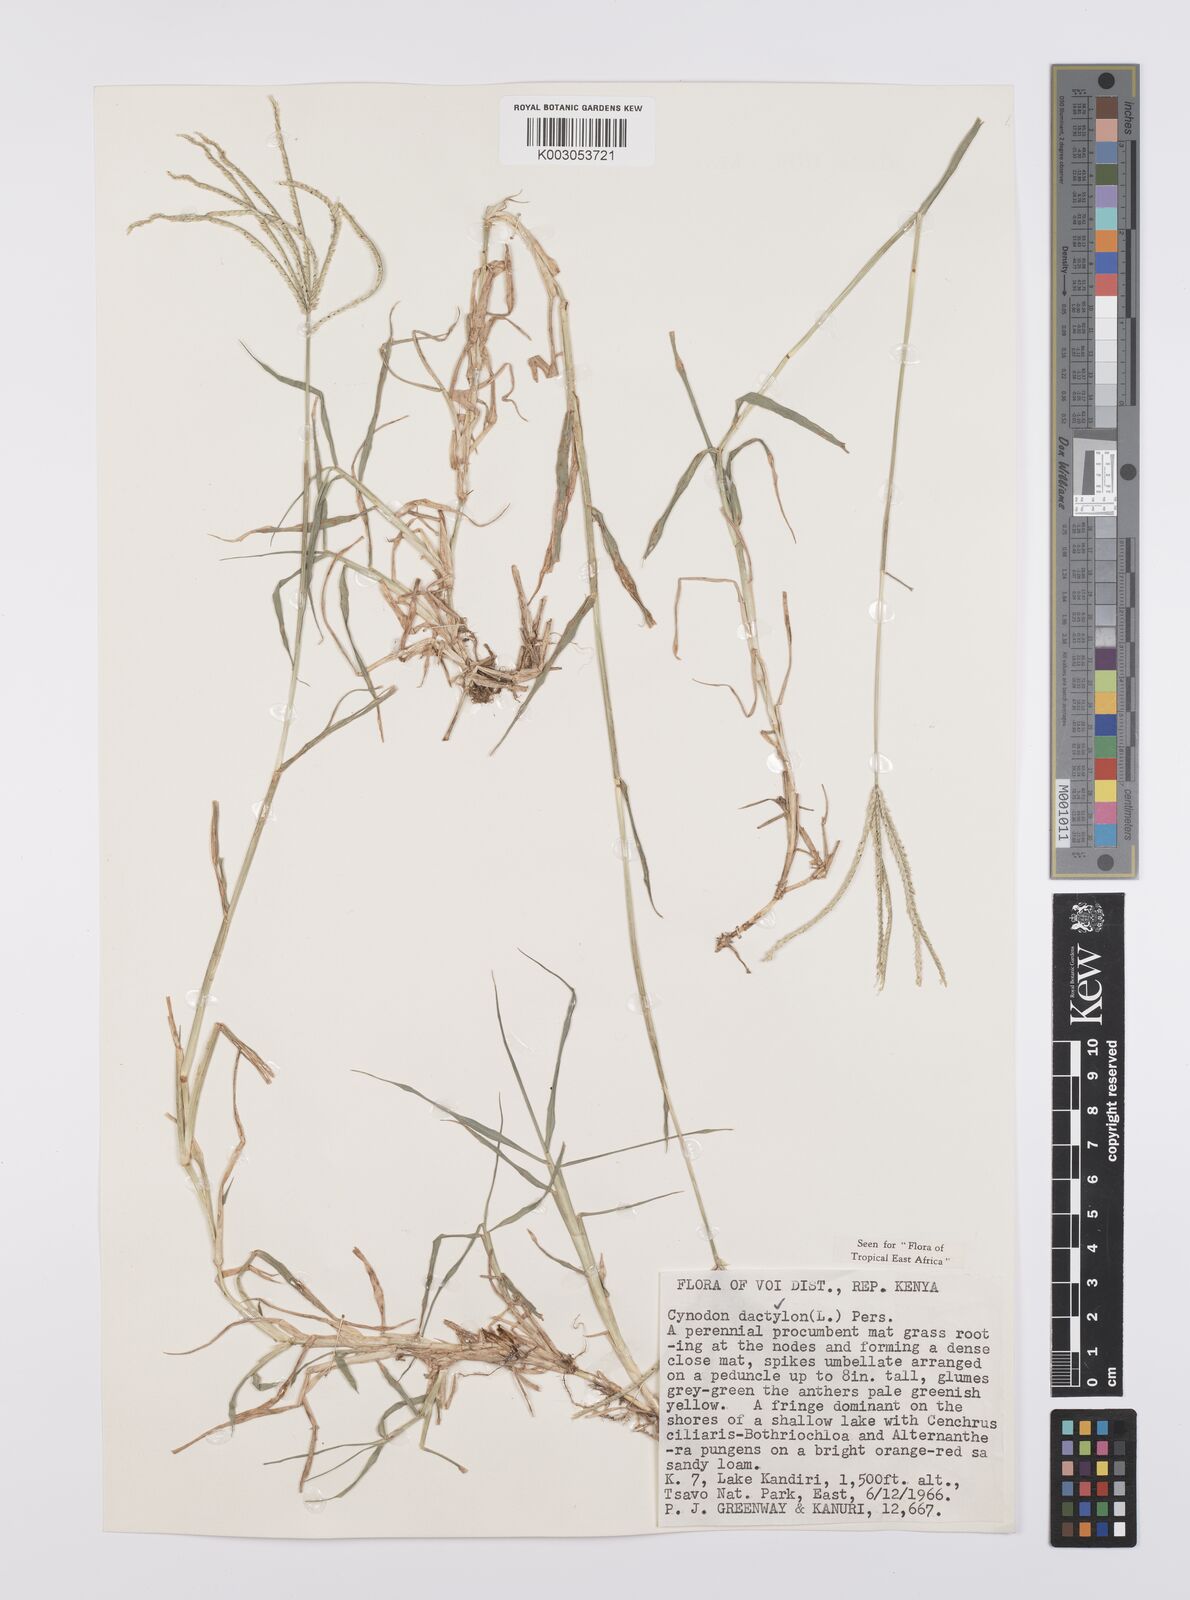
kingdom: Plantae
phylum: Tracheophyta
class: Liliopsida
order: Poales
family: Poaceae
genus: Cynodon
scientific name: Cynodon dactylon
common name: Bermuda grass
